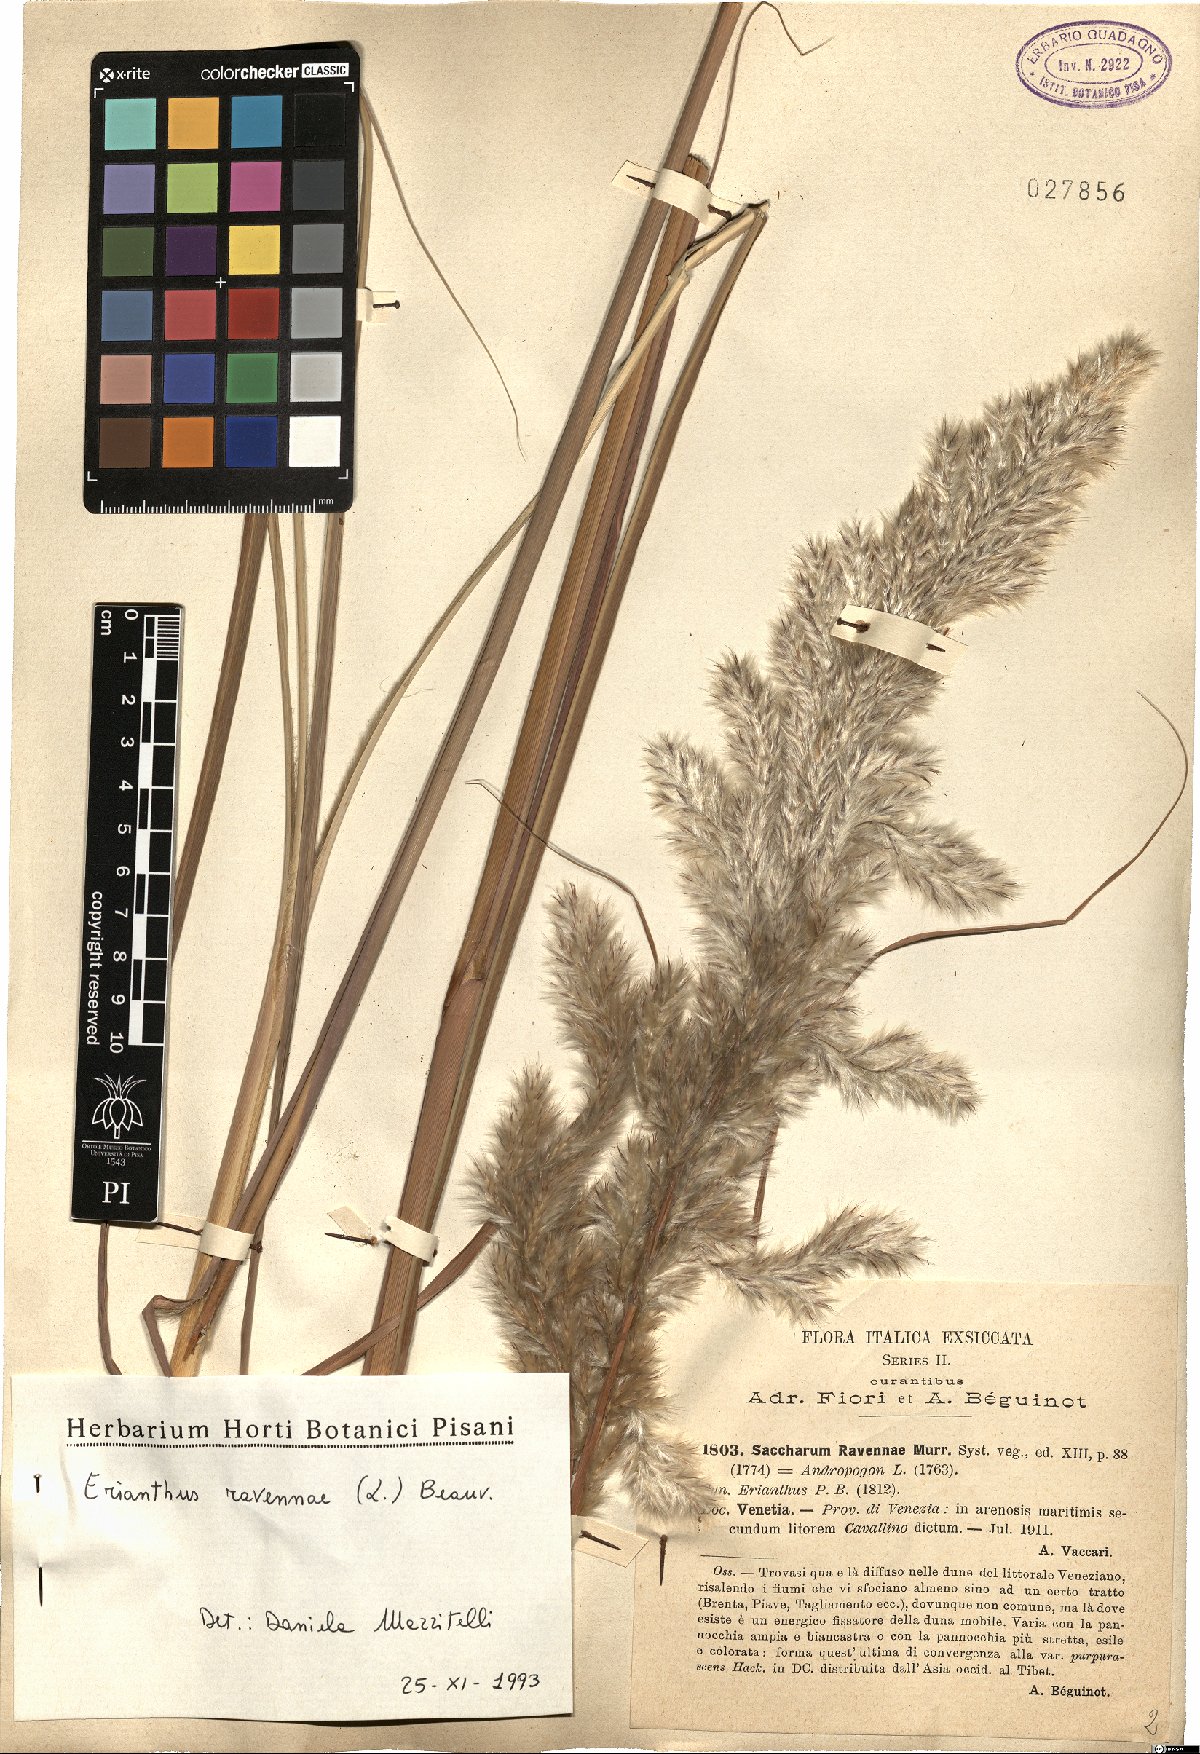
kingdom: Plantae
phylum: Tracheophyta
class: Liliopsida
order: Poales
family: Poaceae
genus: Tripidium
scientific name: Tripidium ravennae
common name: Ravenna grass
